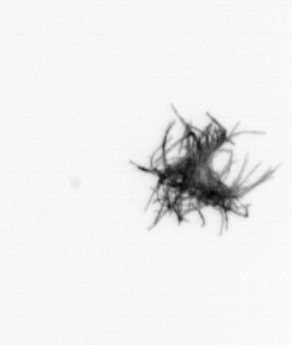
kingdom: Bacteria
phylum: Cyanobacteria
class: Cyanobacteriia
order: Cyanobacteriales
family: Microcoleaceae
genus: Trichodesmium
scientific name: Trichodesmium
